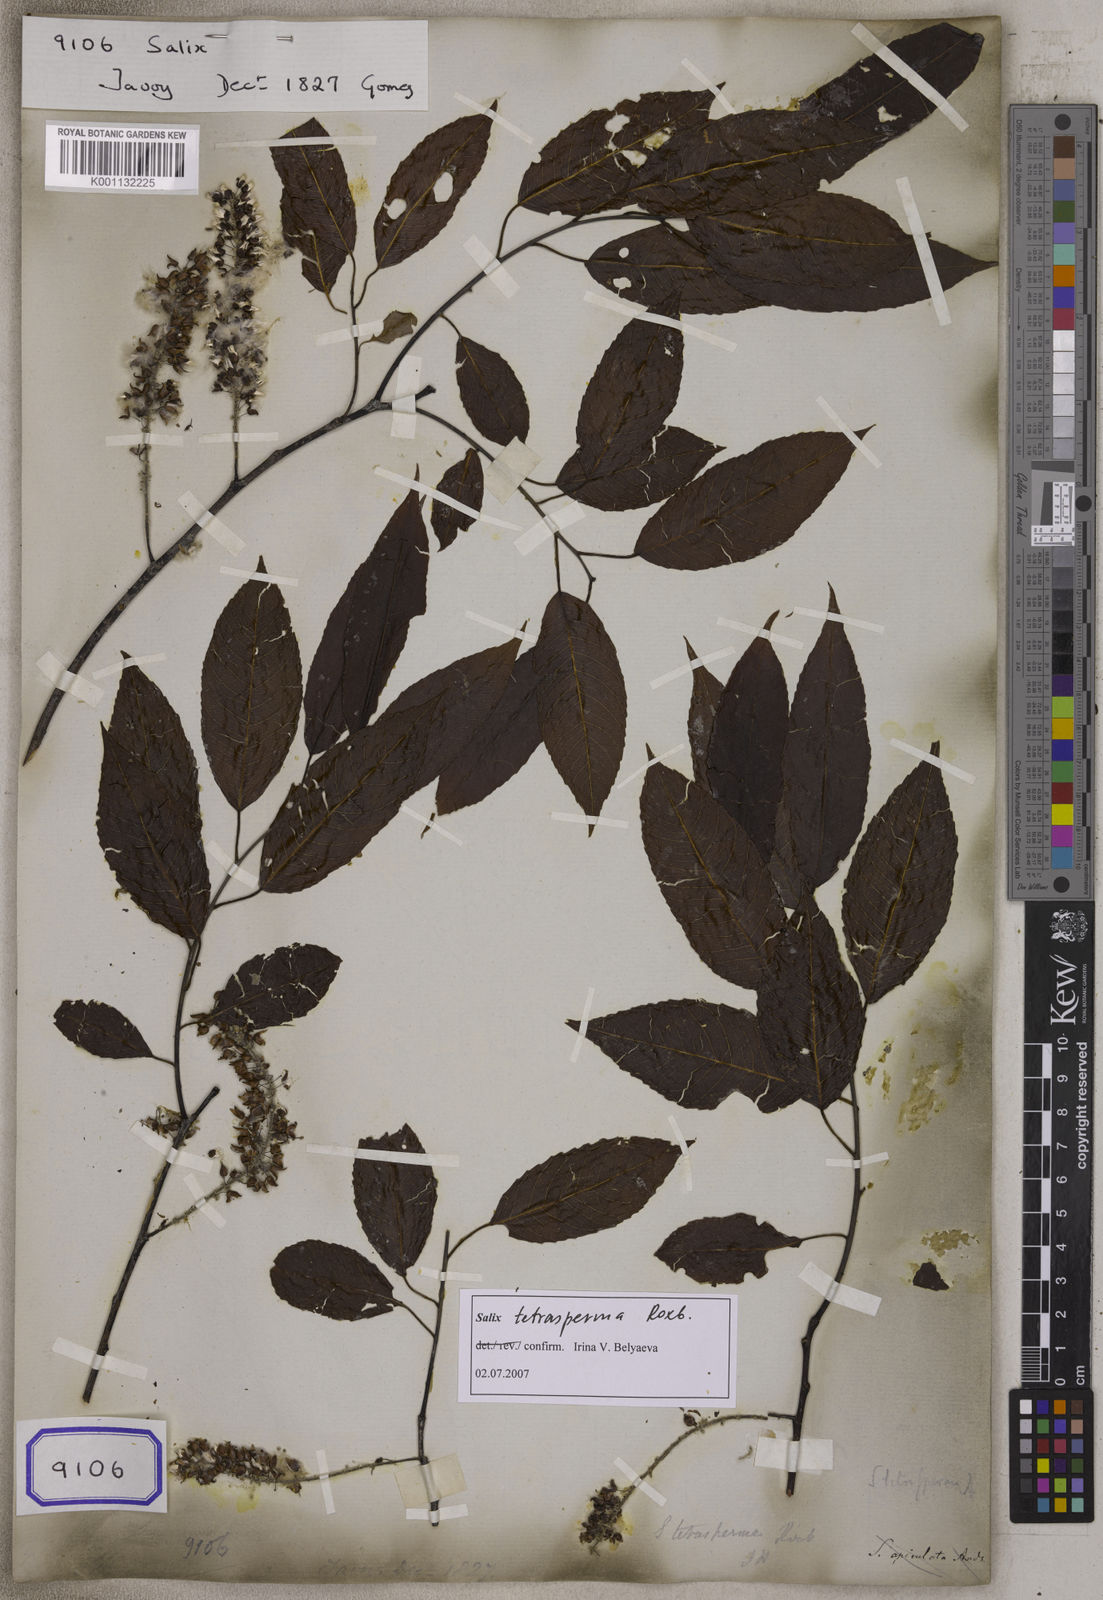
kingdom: Plantae
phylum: Tracheophyta
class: Magnoliopsida
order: Malpighiales
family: Salicaceae
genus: Salix
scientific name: Salix
